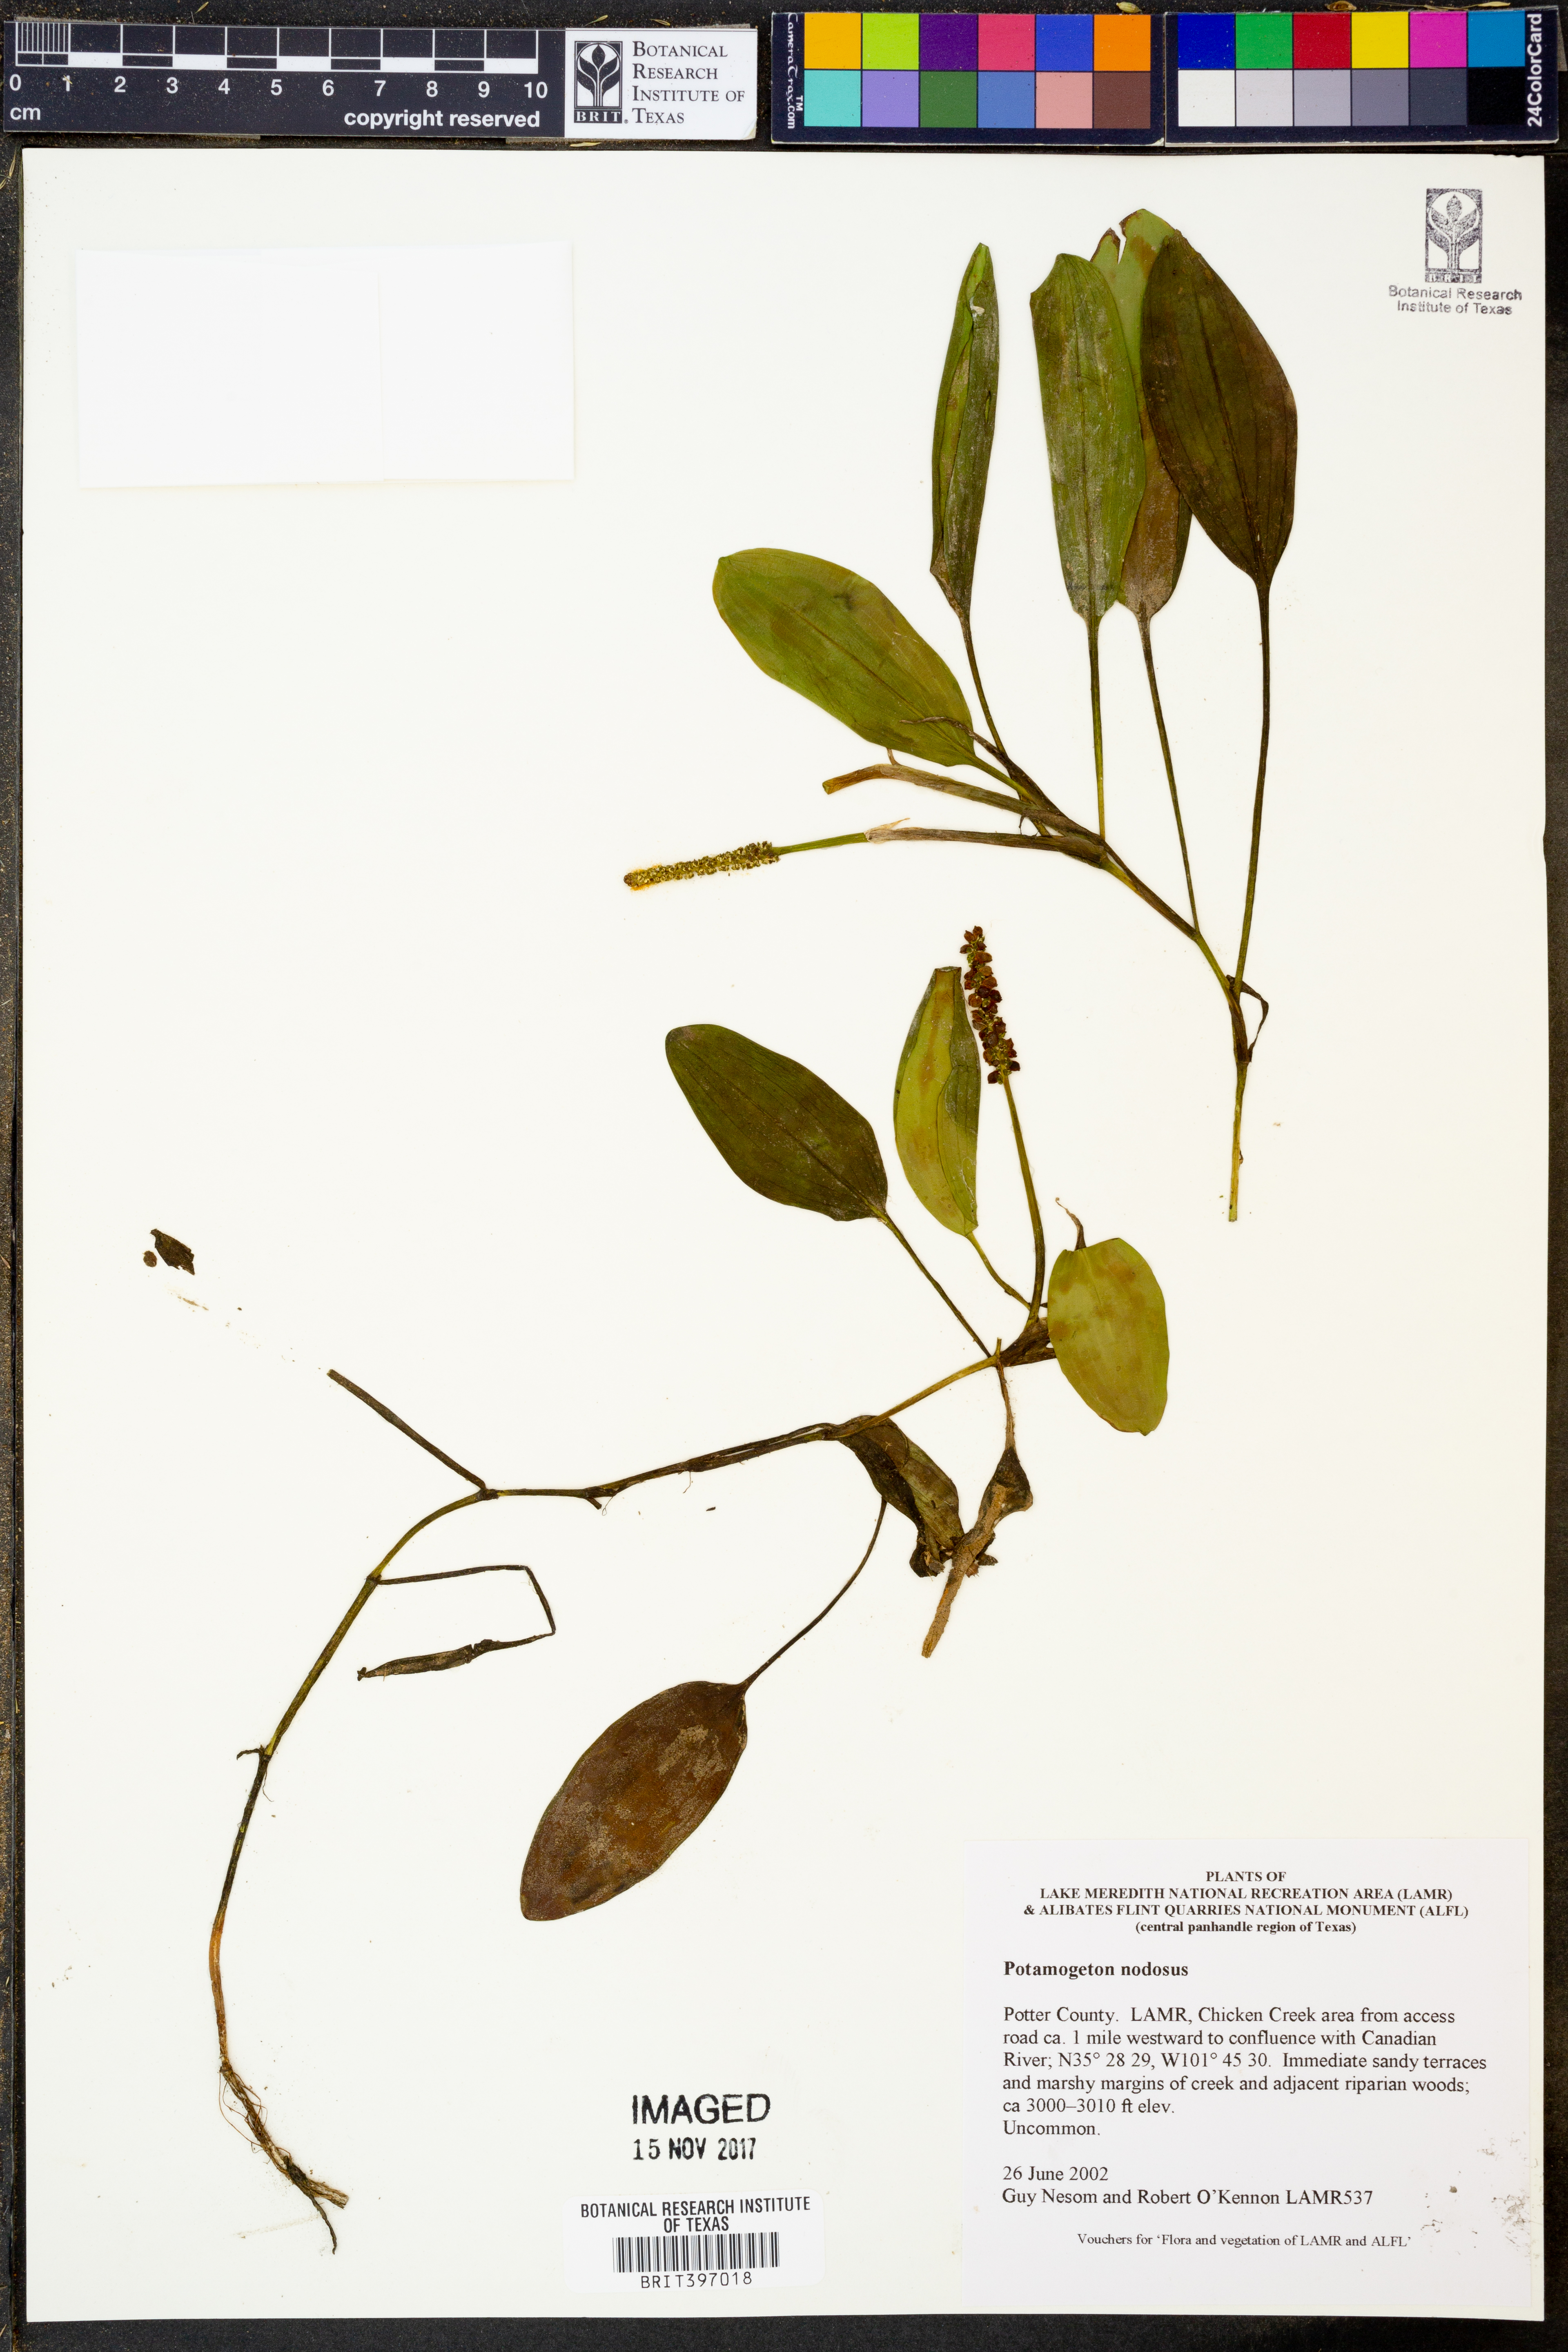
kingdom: Plantae
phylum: Tracheophyta
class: Liliopsida
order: Alismatales
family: Potamogetonaceae
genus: Potamogeton
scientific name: Potamogeton nodosus
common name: Loddon pondweed
